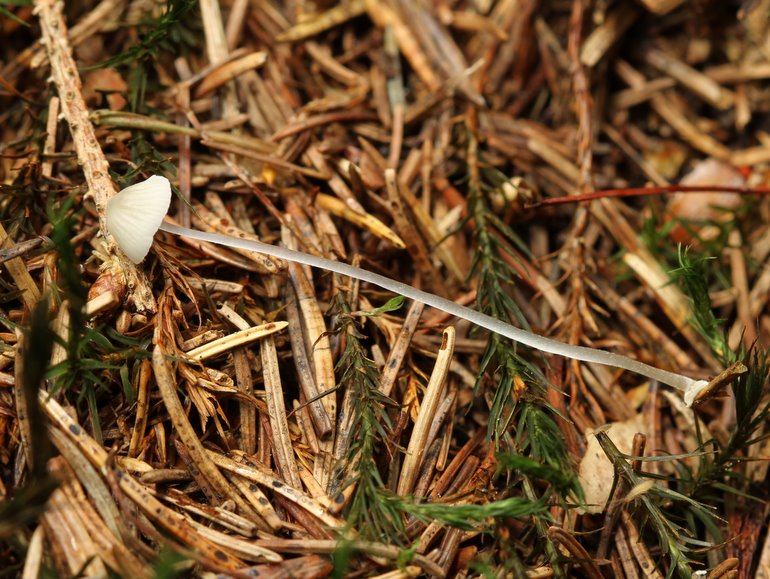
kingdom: Fungi
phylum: Basidiomycota
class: Agaricomycetes
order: Agaricales
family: Mycenaceae
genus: Mycena
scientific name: Mycena stylobates
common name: fureskivet huesvamp
